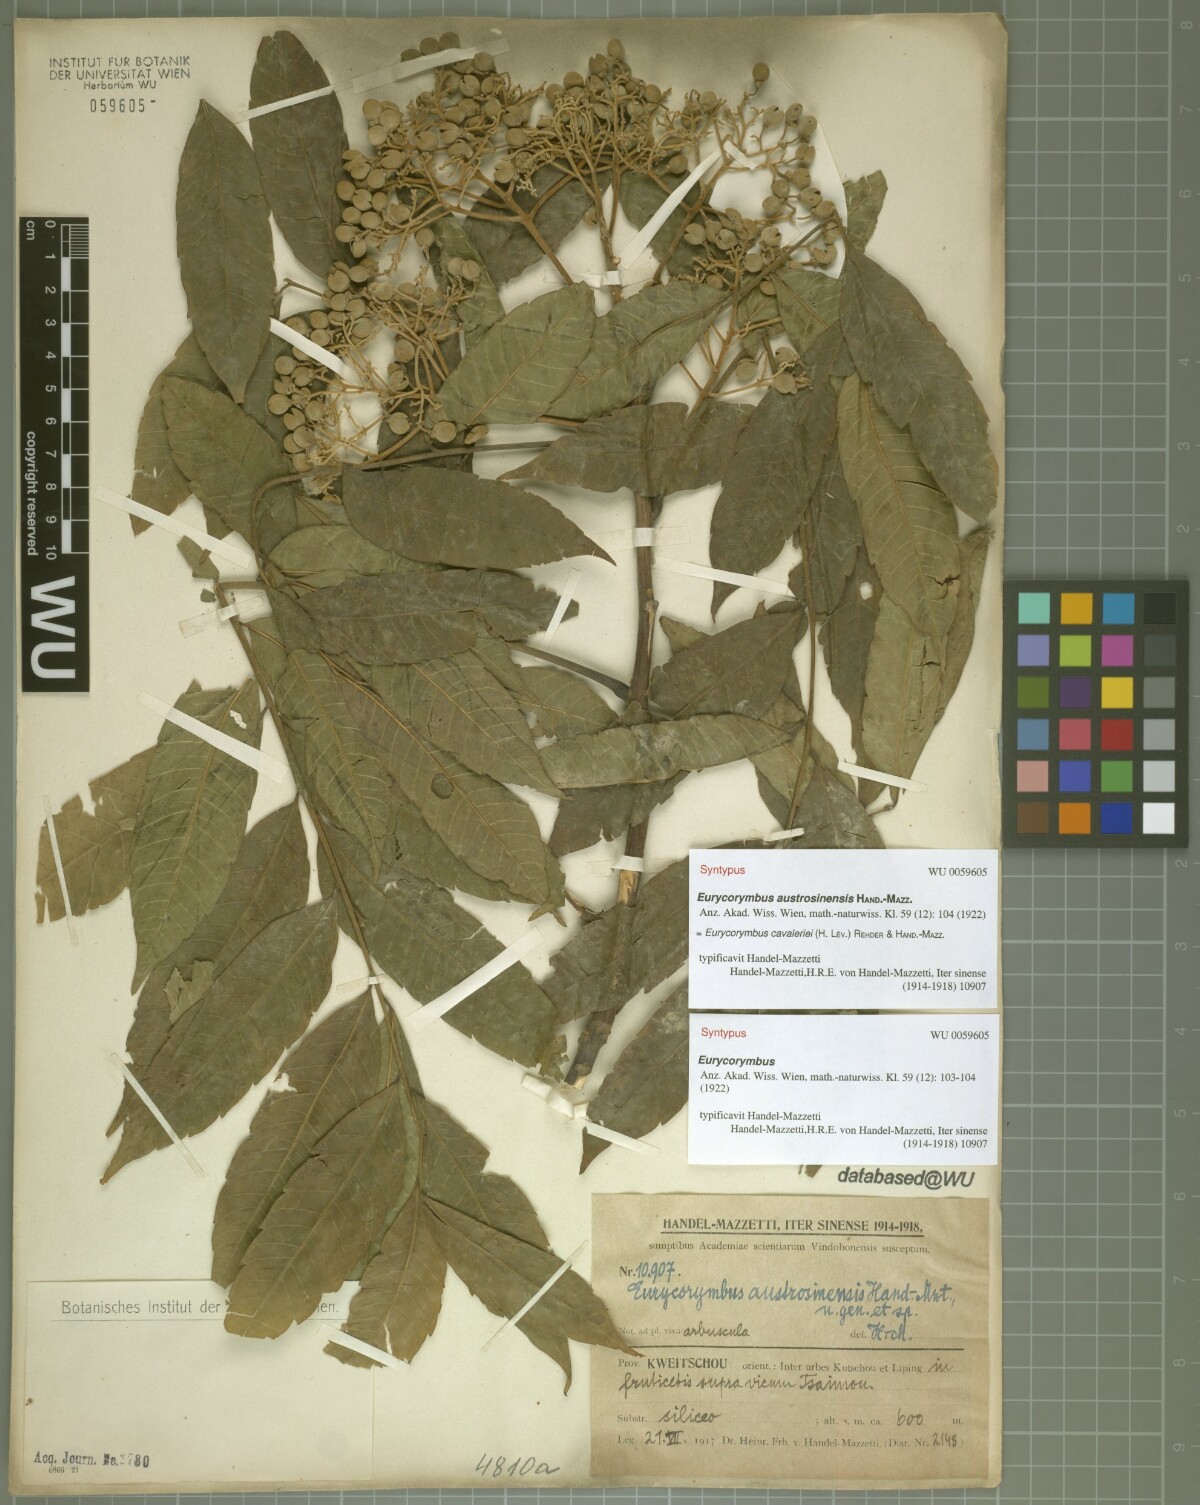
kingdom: Plantae
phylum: Tracheophyta
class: Magnoliopsida
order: Sapindales
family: Sapindaceae
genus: Eurycorymbus
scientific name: Eurycorymbus cavaleriei
